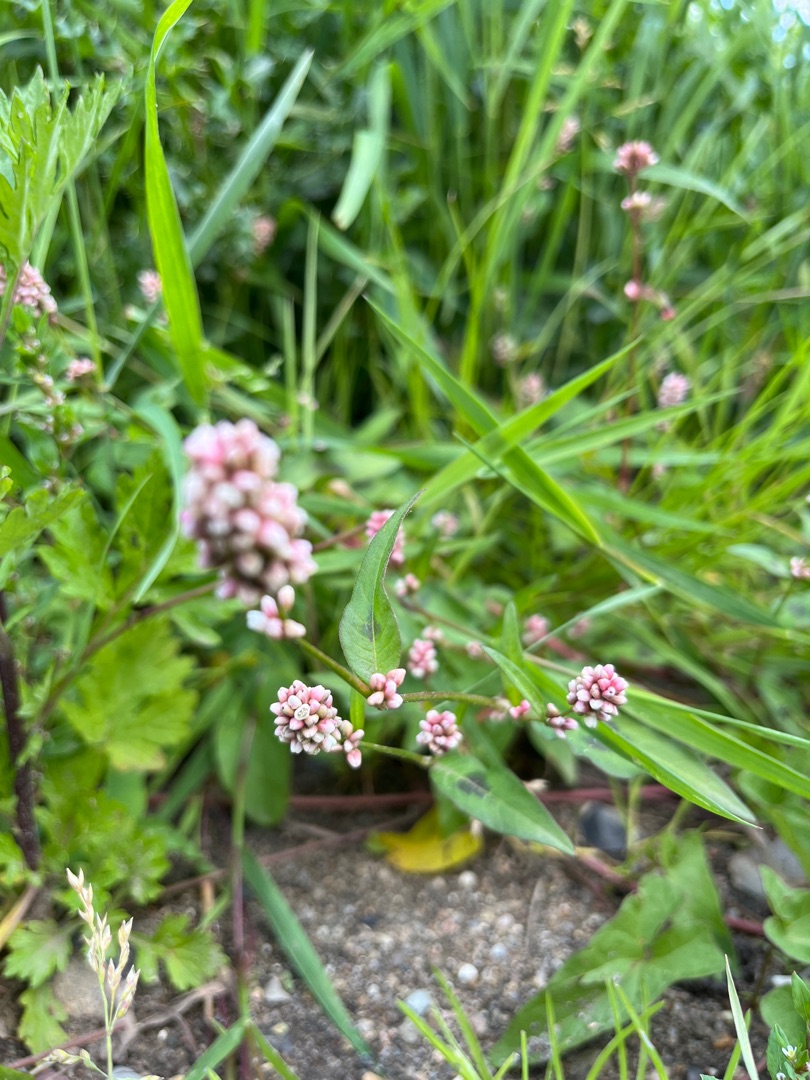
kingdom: Plantae
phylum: Tracheophyta
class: Magnoliopsida
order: Caryophyllales
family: Polygonaceae
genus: Persicaria
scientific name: Persicaria maculosa
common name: Fersken-pileurt
